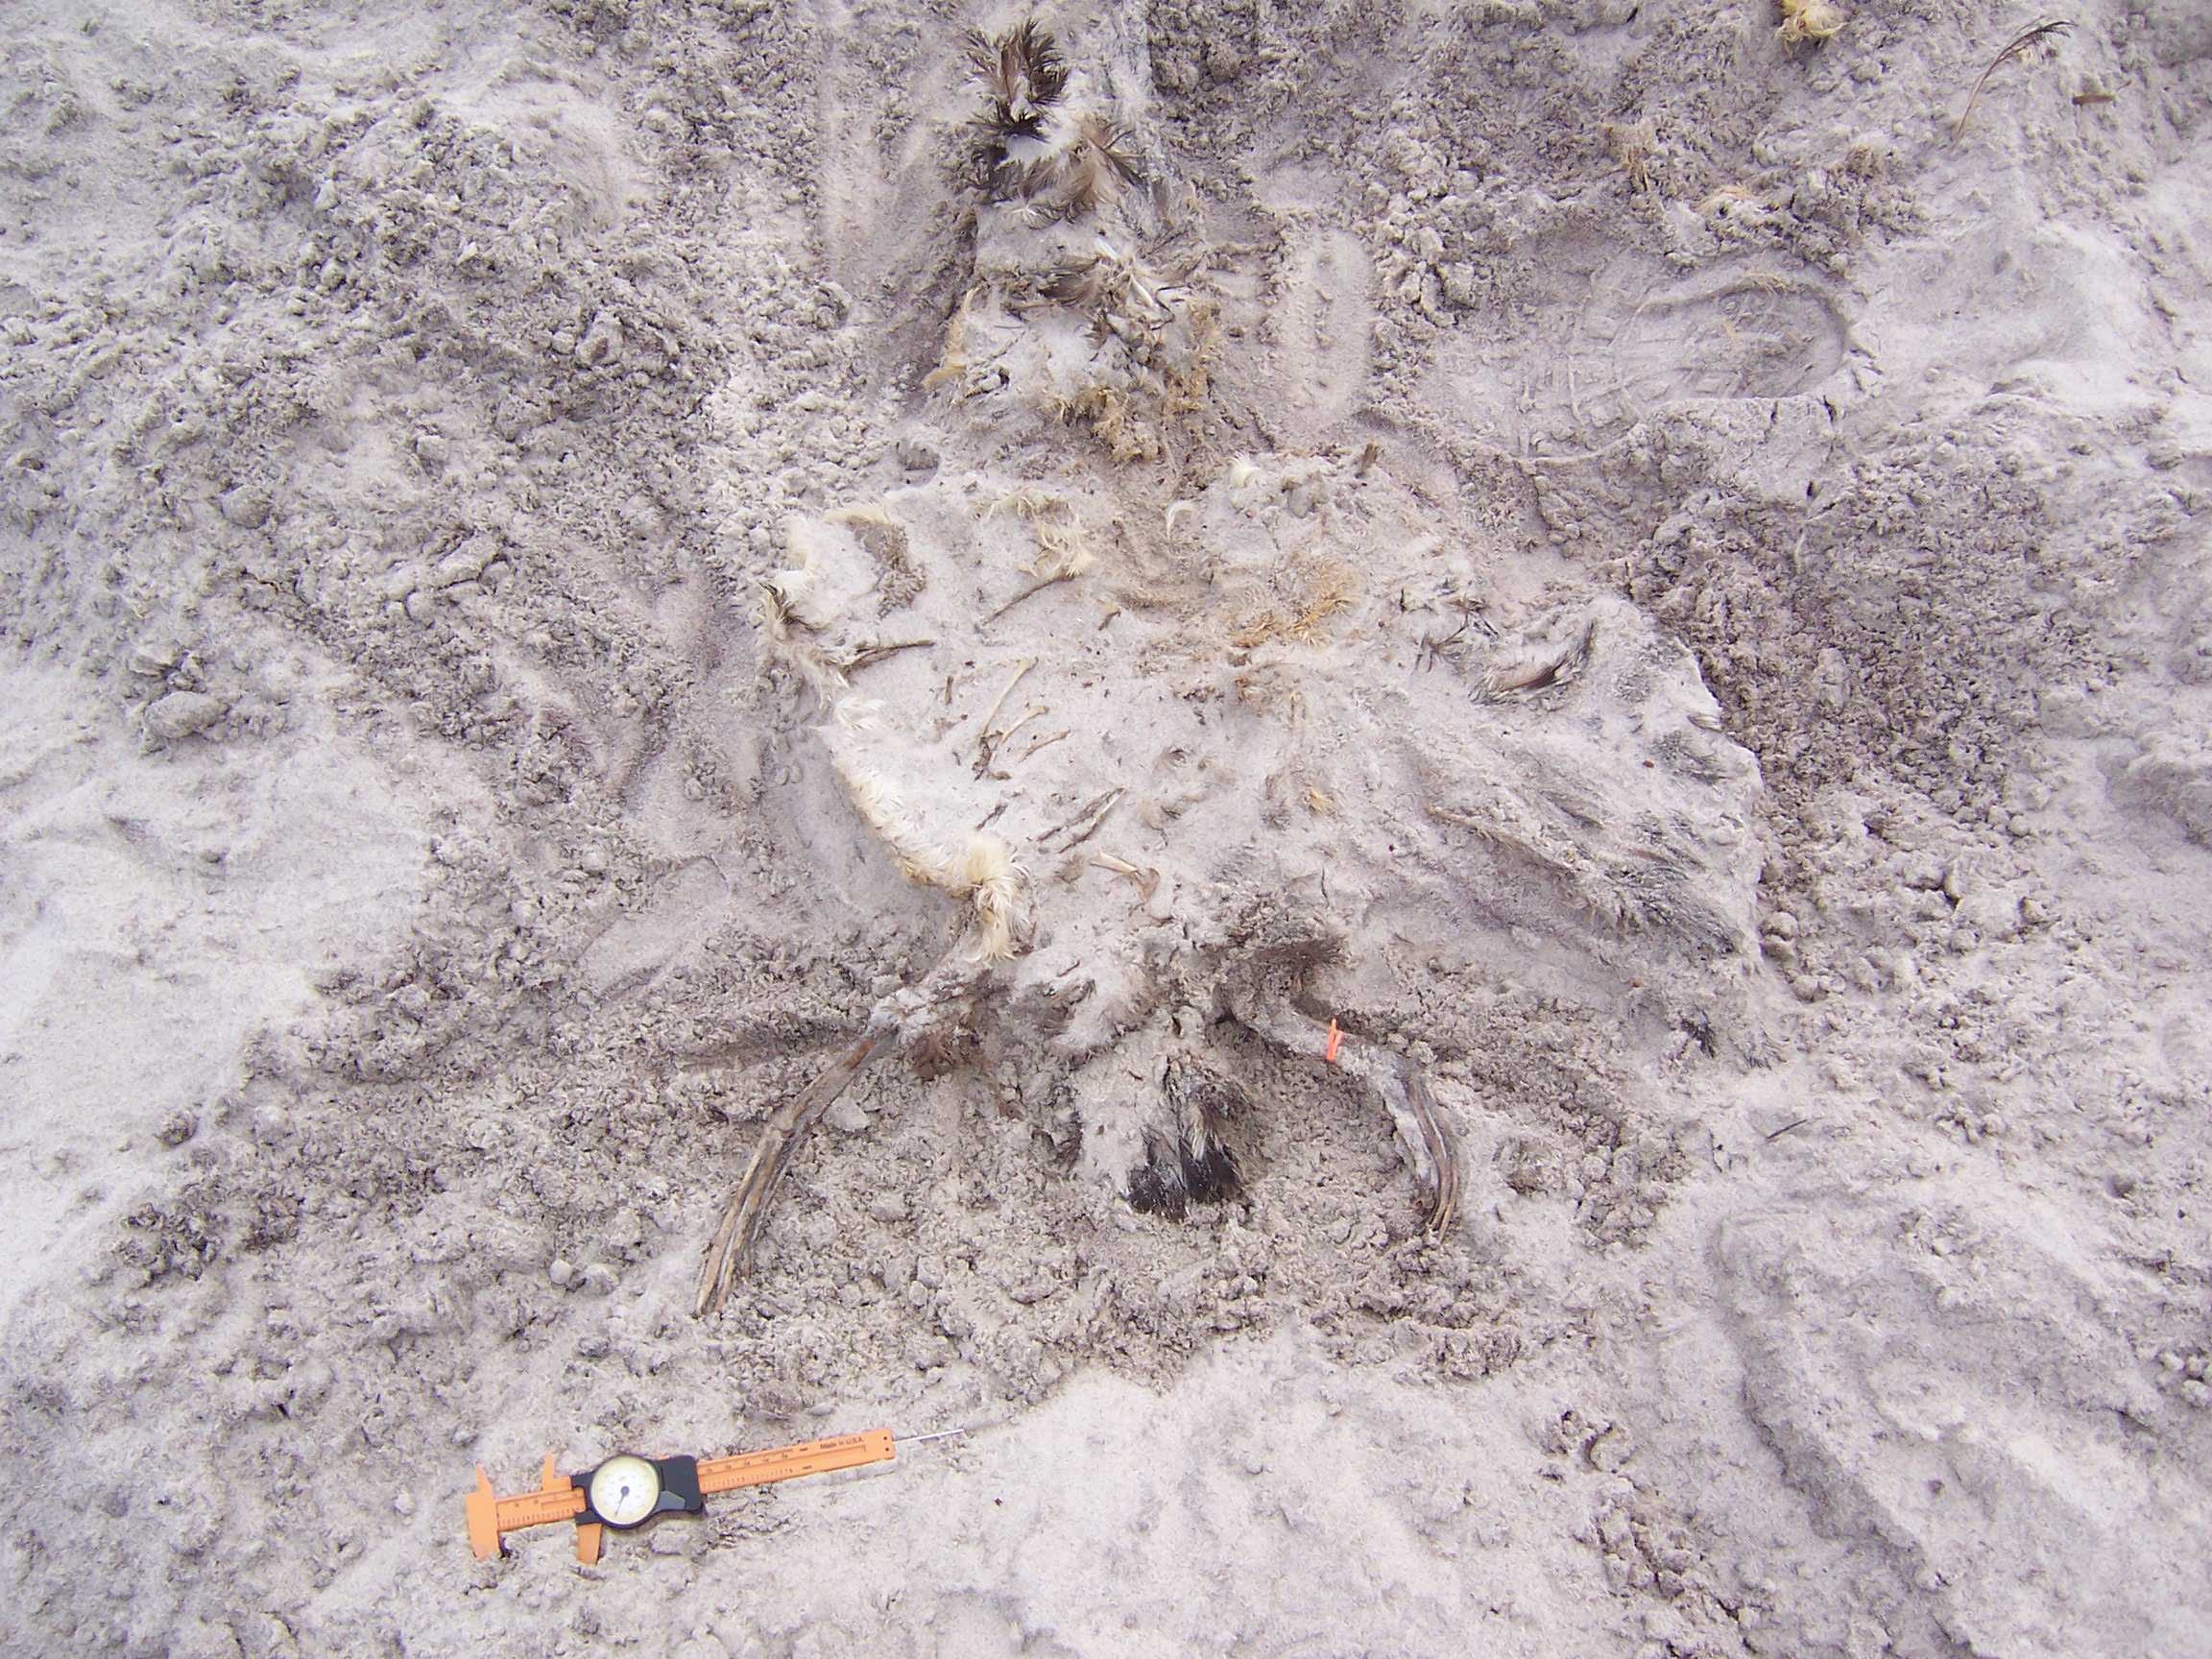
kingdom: Animalia
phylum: Chordata
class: Aves
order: Charadriiformes
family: Laridae
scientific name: Laridae
